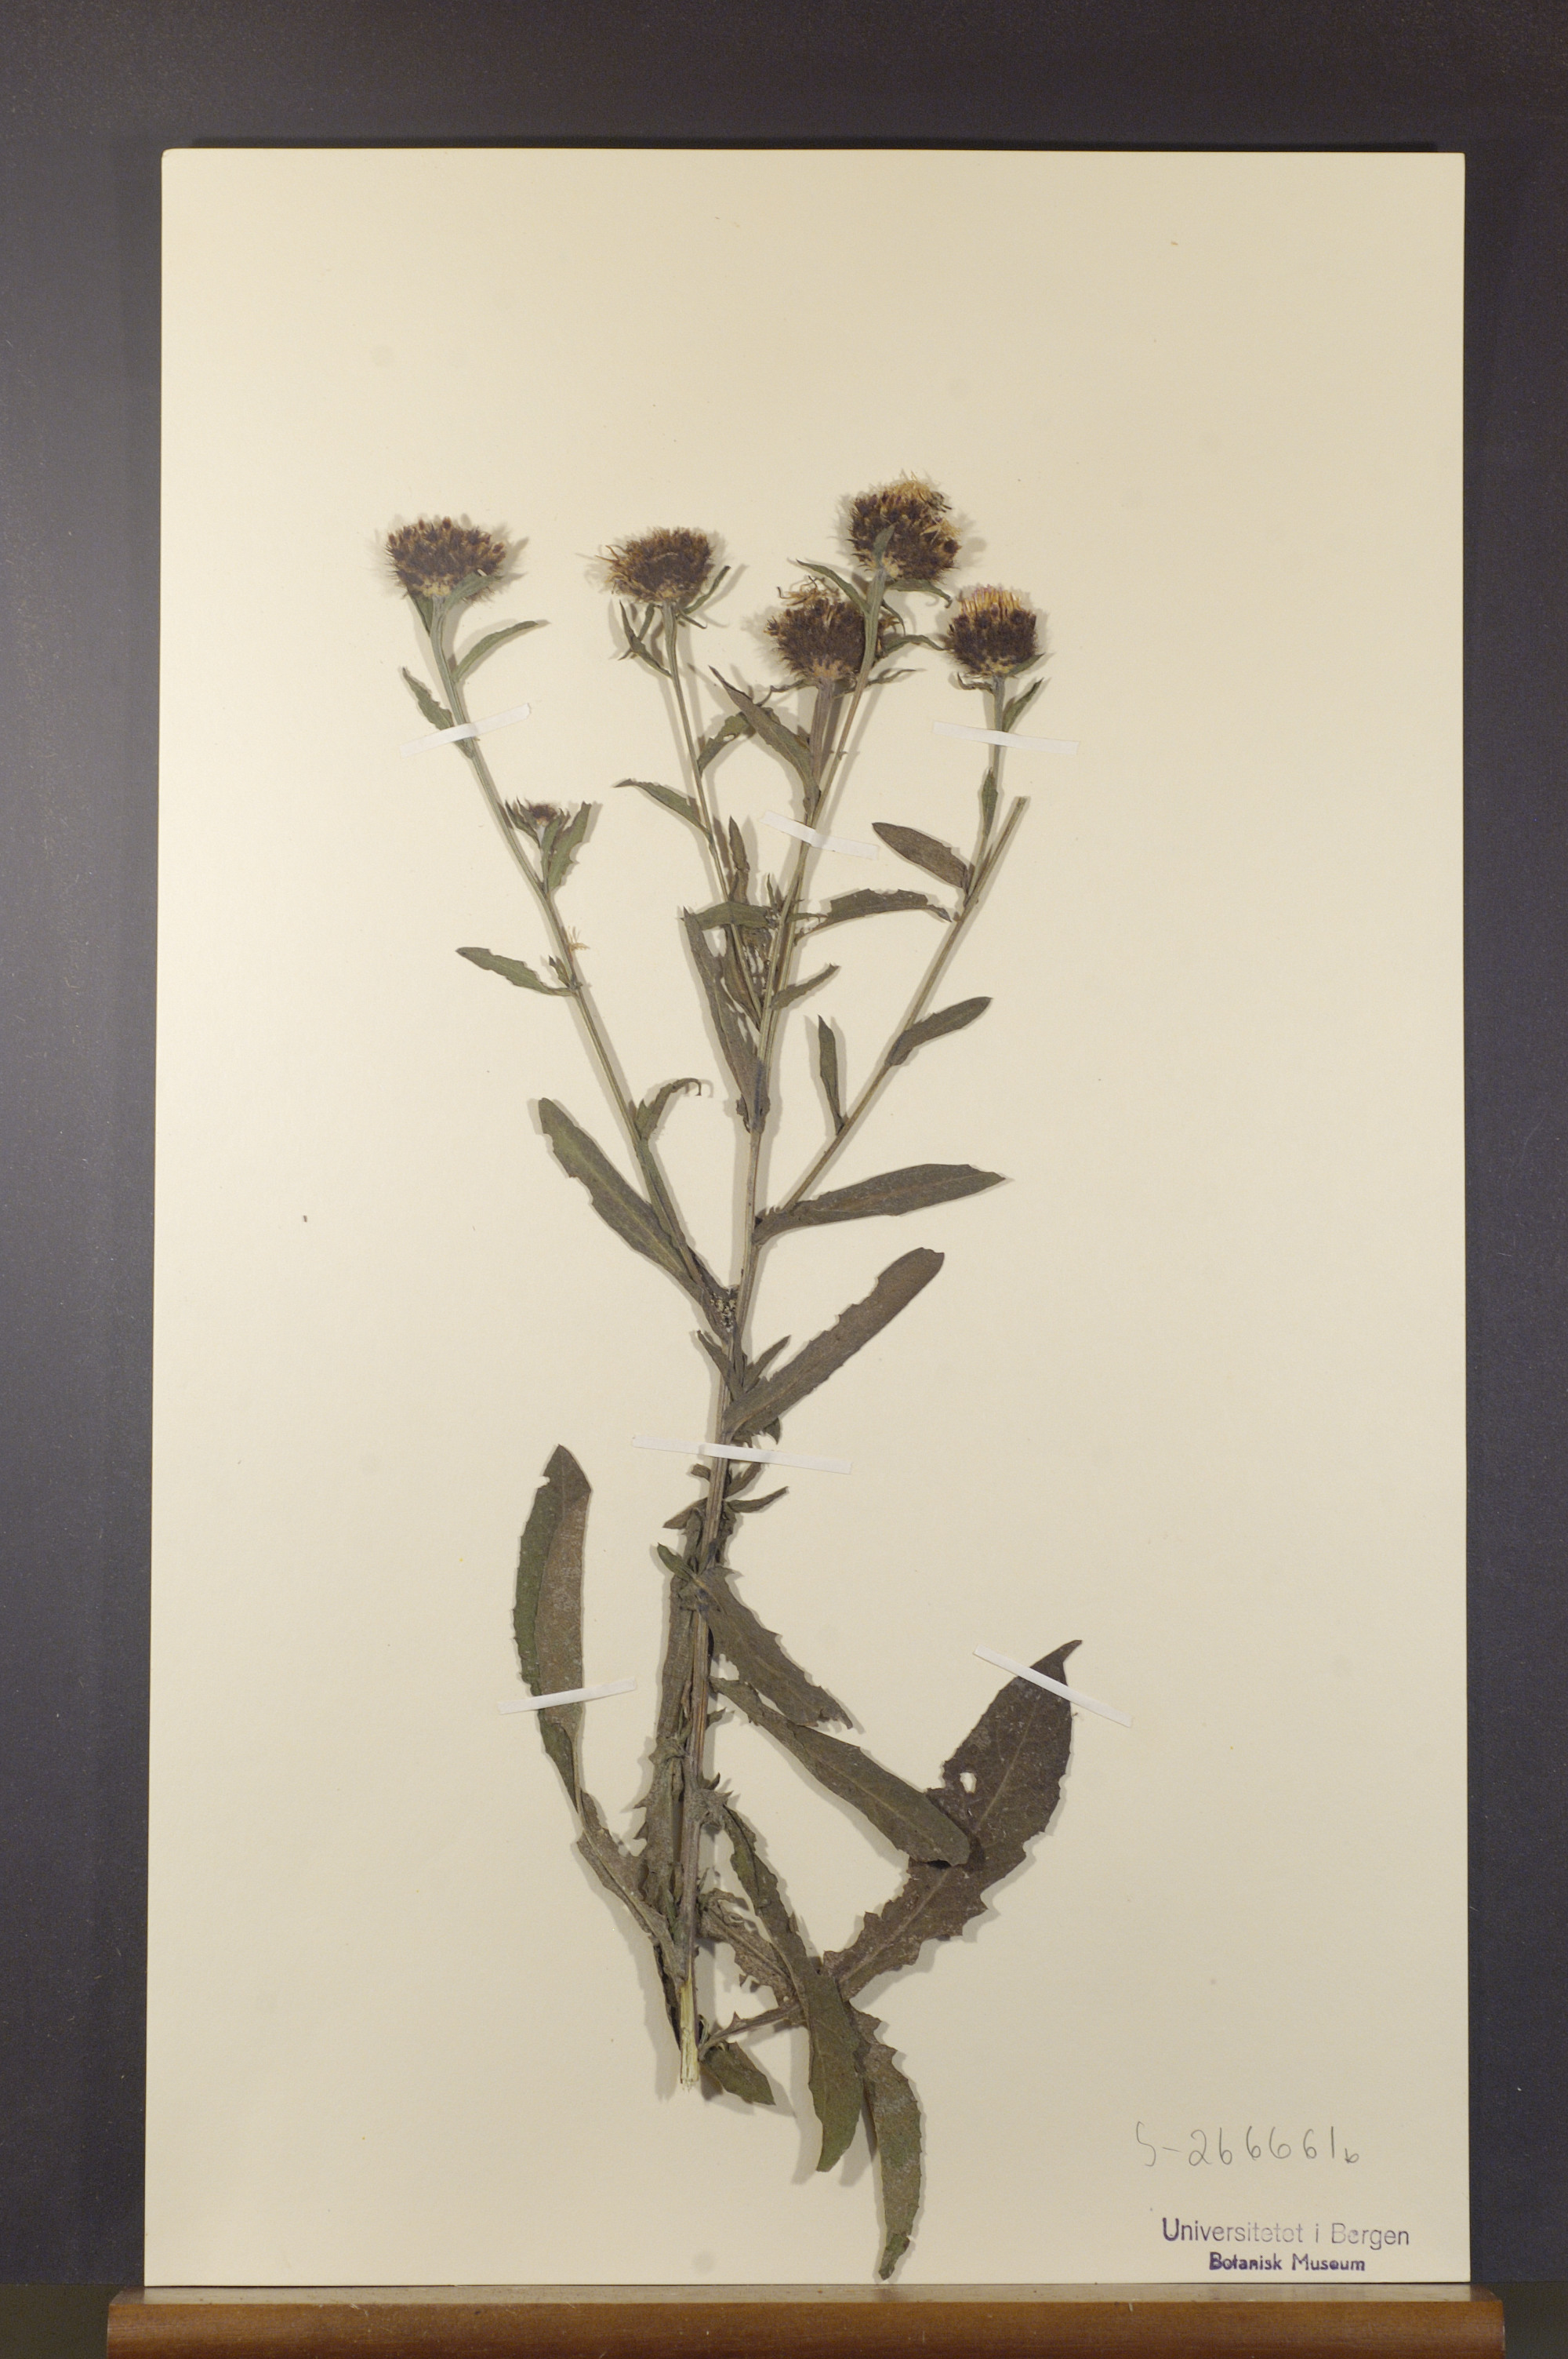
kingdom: Plantae
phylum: Tracheophyta
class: Magnoliopsida
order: Asterales
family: Asteraceae
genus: Centaurea
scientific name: Centaurea nigra
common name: Lesser knapweed
